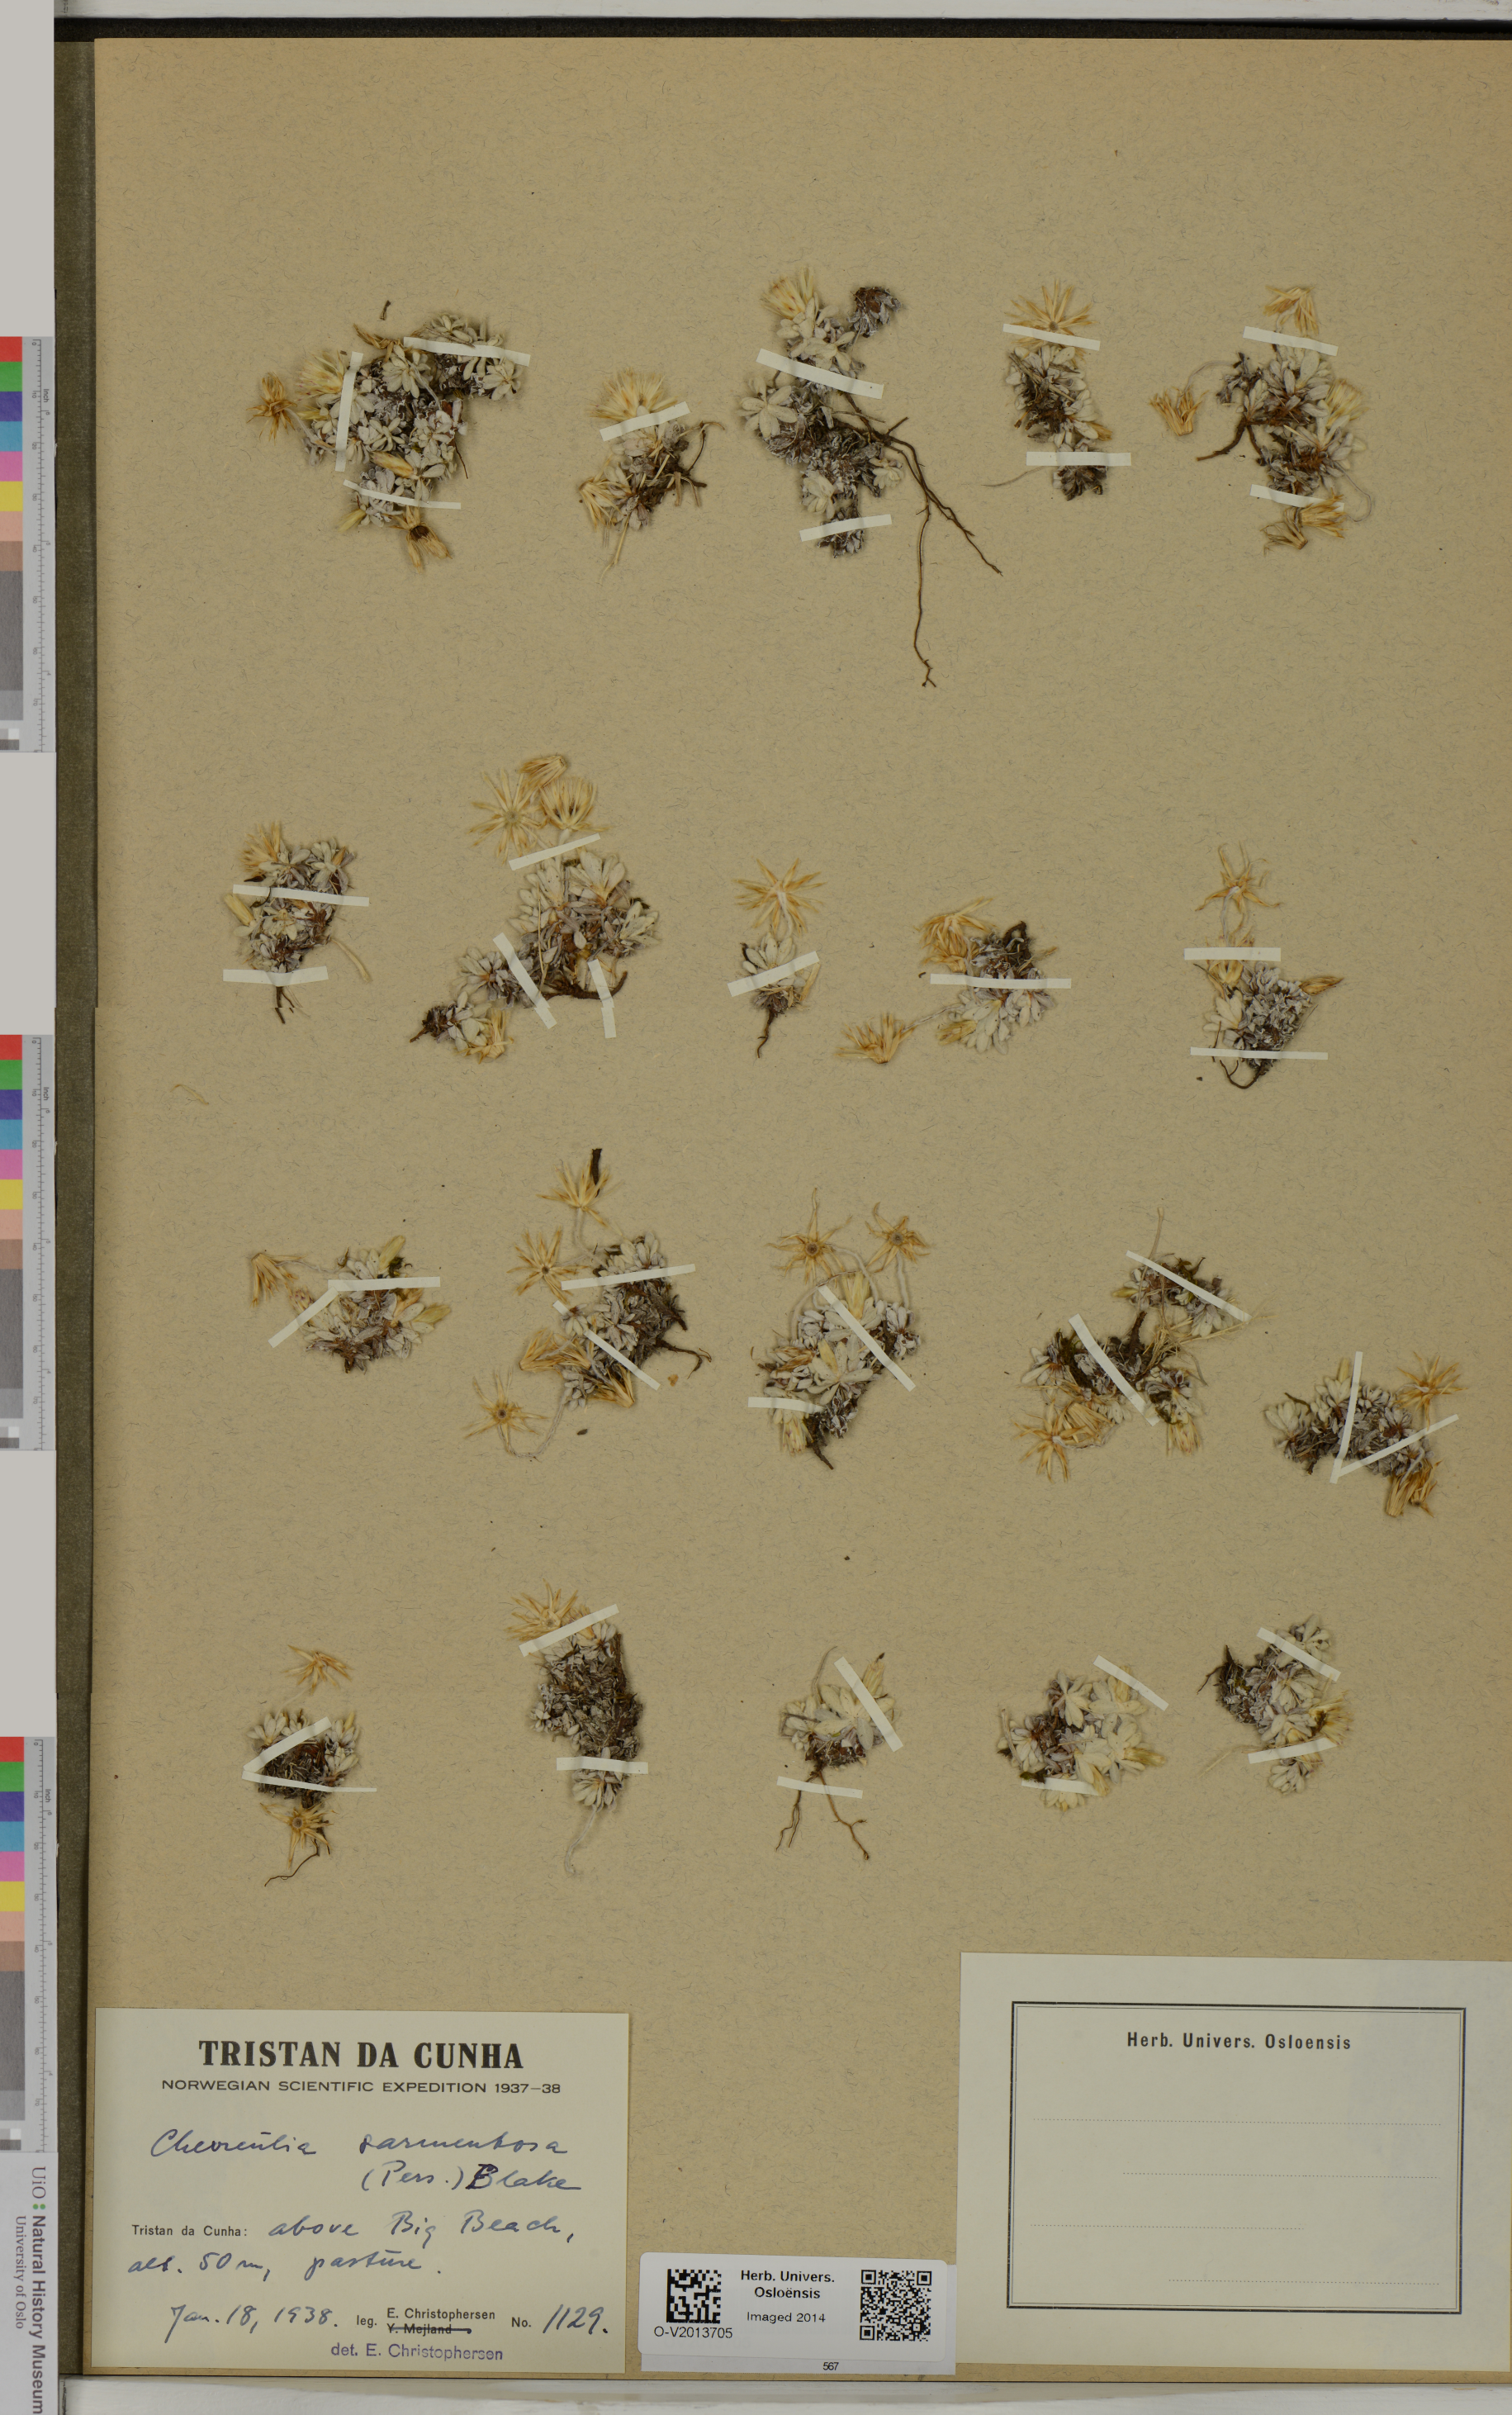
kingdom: Plantae
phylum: Tracheophyta
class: Magnoliopsida
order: Asterales
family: Asteraceae
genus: Chevreulia
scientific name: Chevreulia sarmentosa
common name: Sunflower
